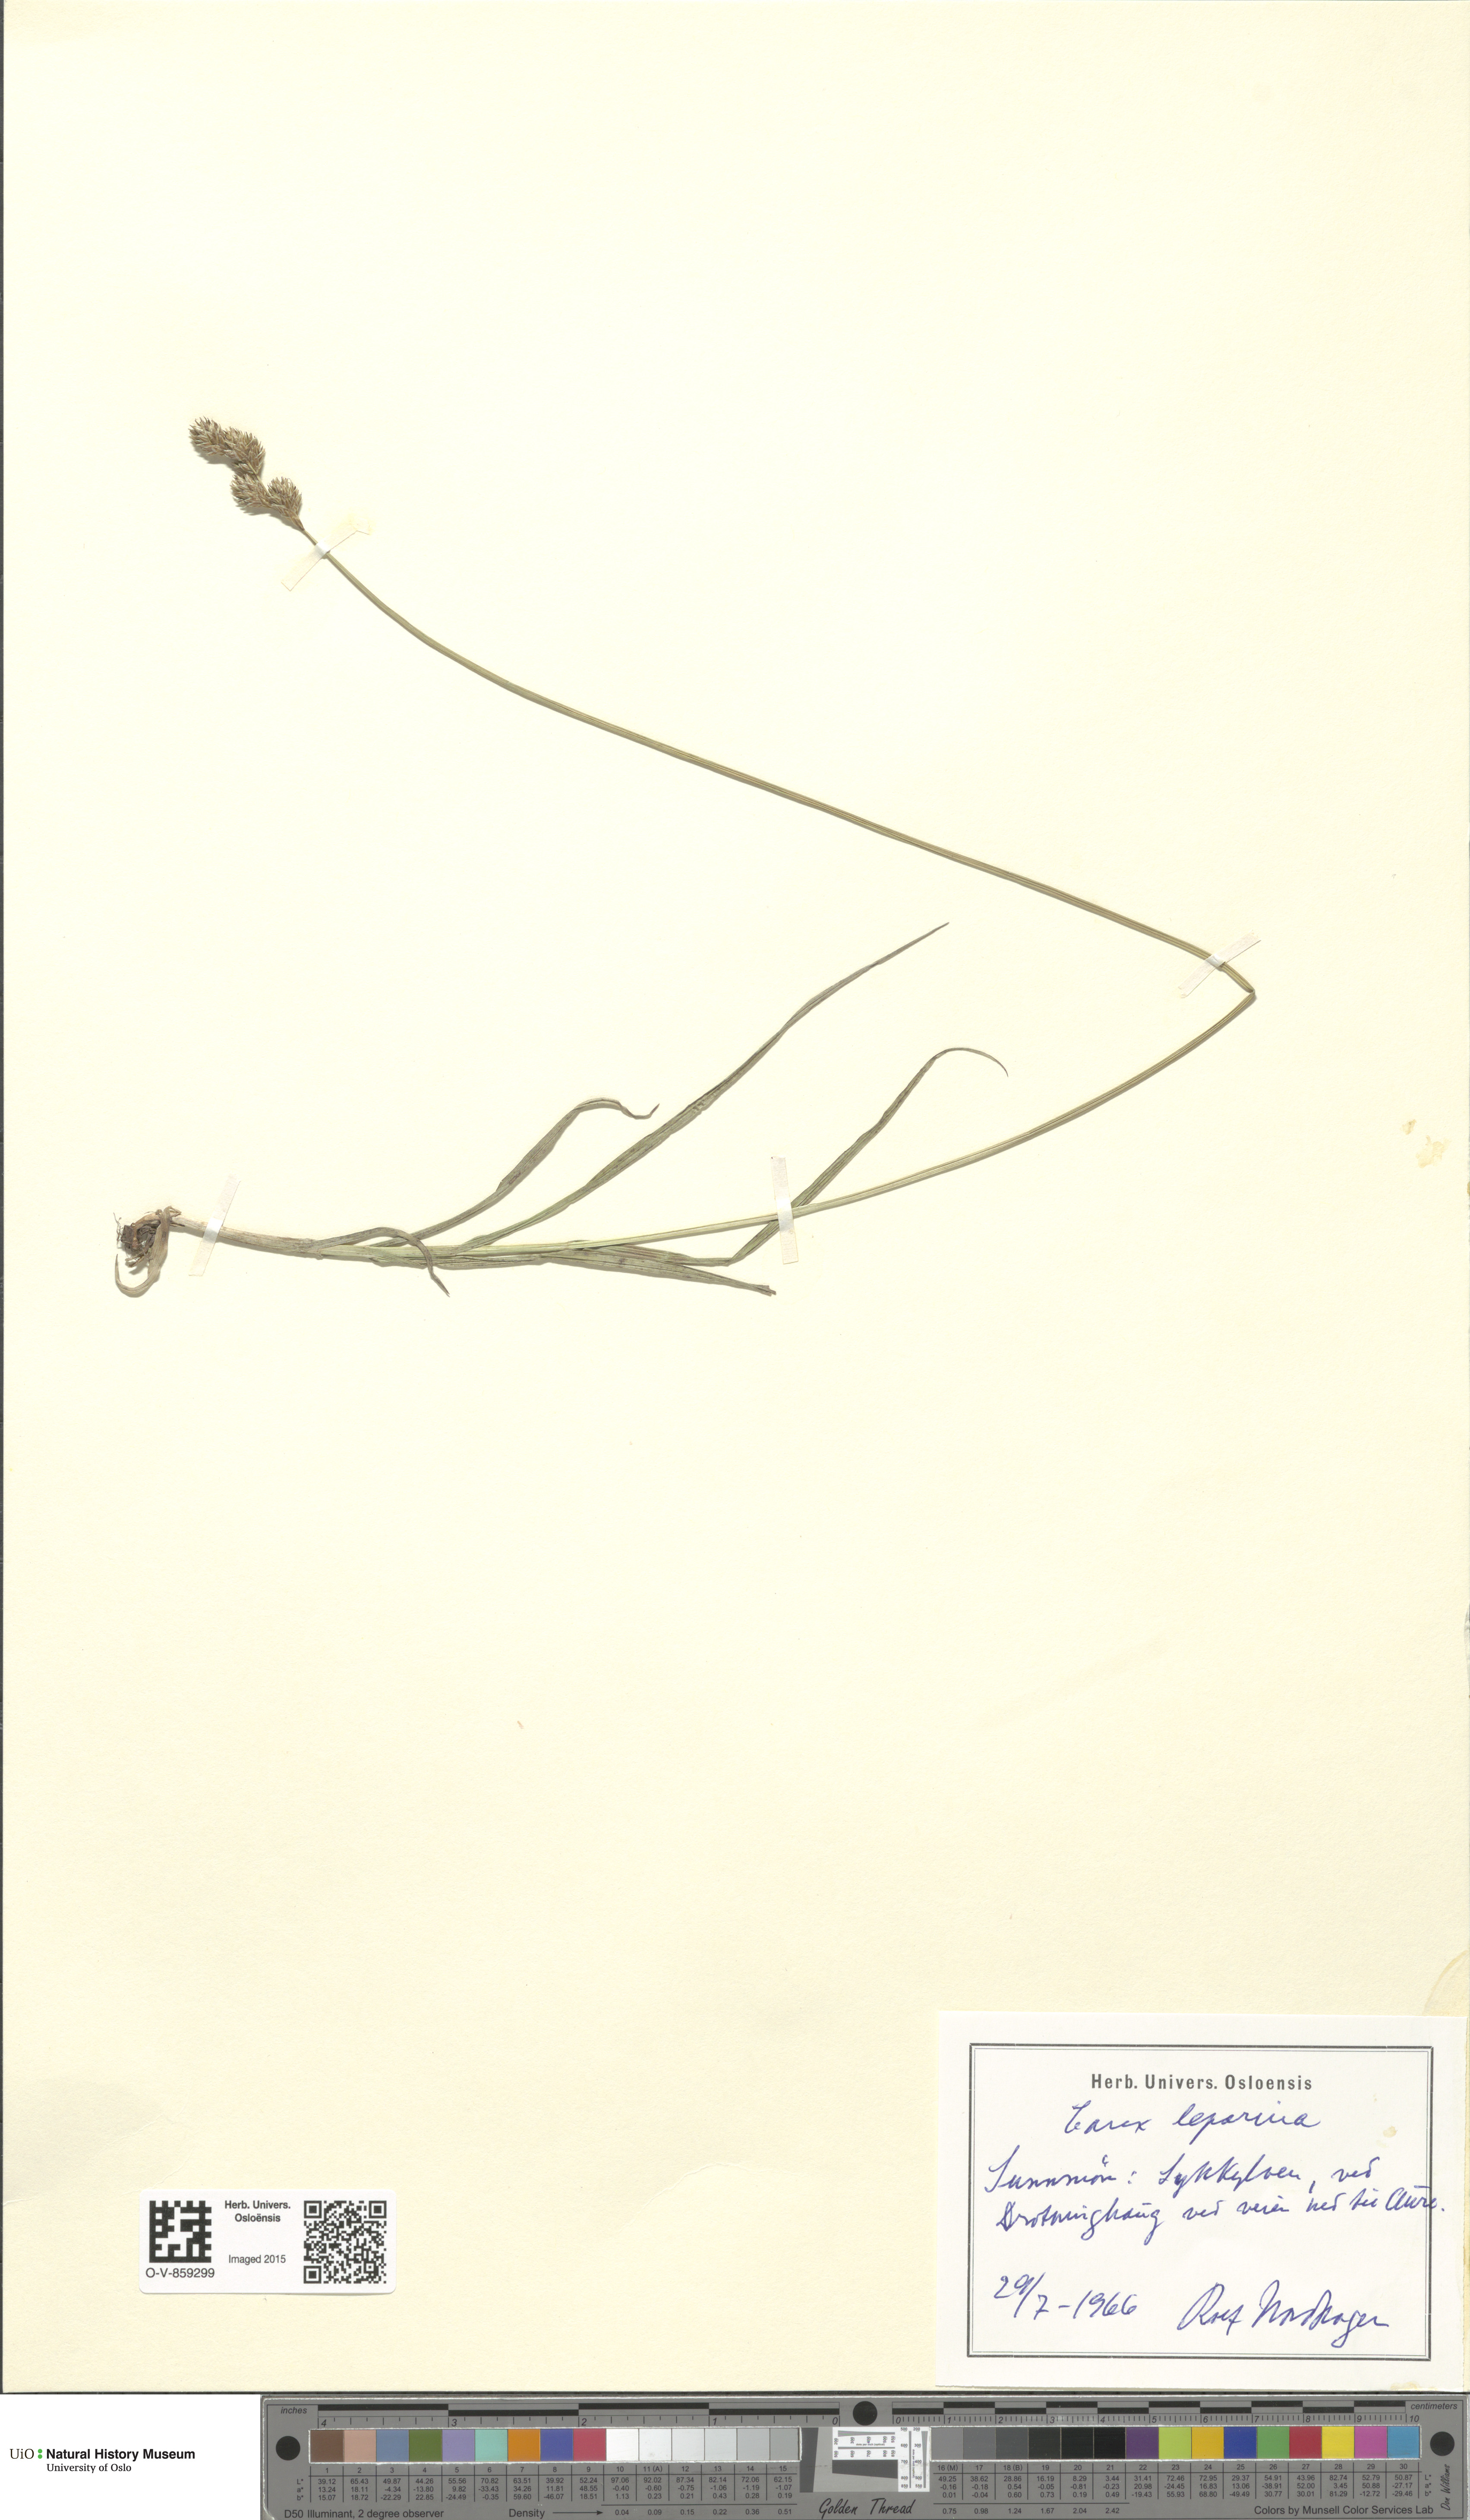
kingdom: Plantae
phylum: Tracheophyta
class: Liliopsida
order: Poales
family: Cyperaceae
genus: Carex
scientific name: Carex leporina
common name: Oval sedge
